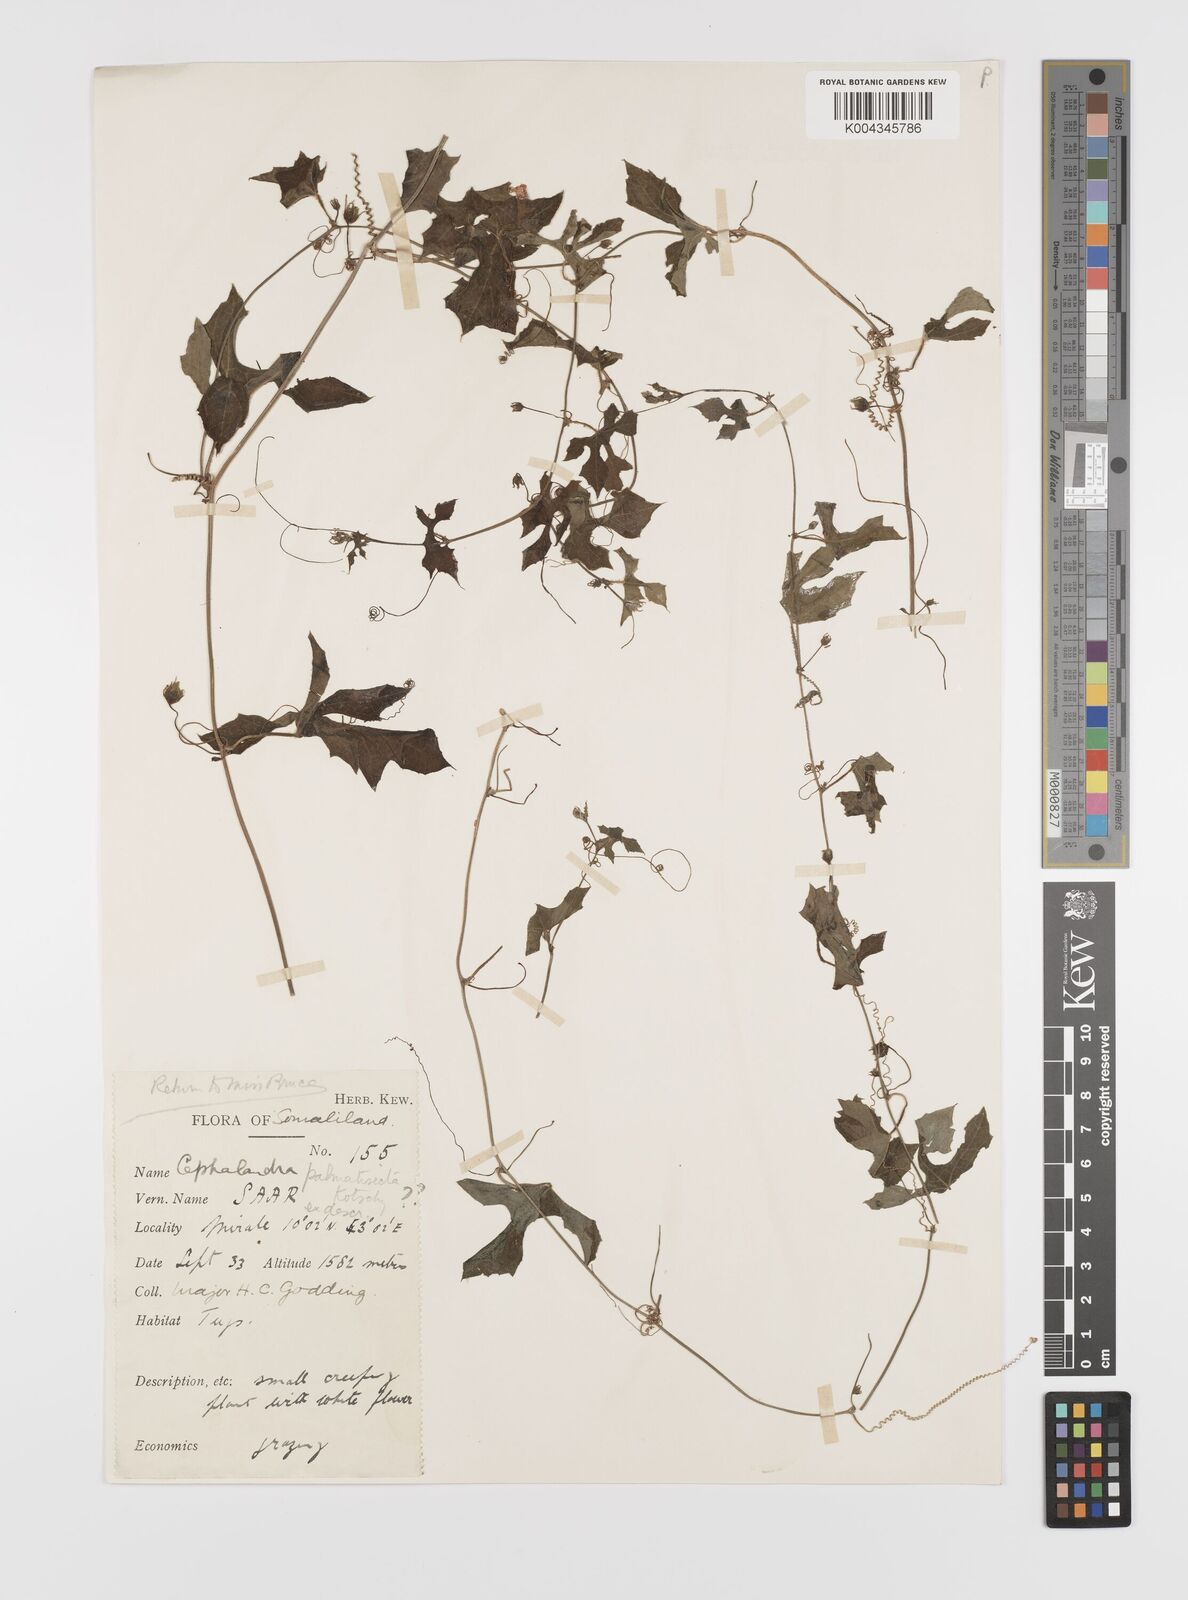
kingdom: Plantae
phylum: Tracheophyta
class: Magnoliopsida
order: Cucurbitales
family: Cucurbitaceae
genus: Coccinia
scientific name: Coccinia
